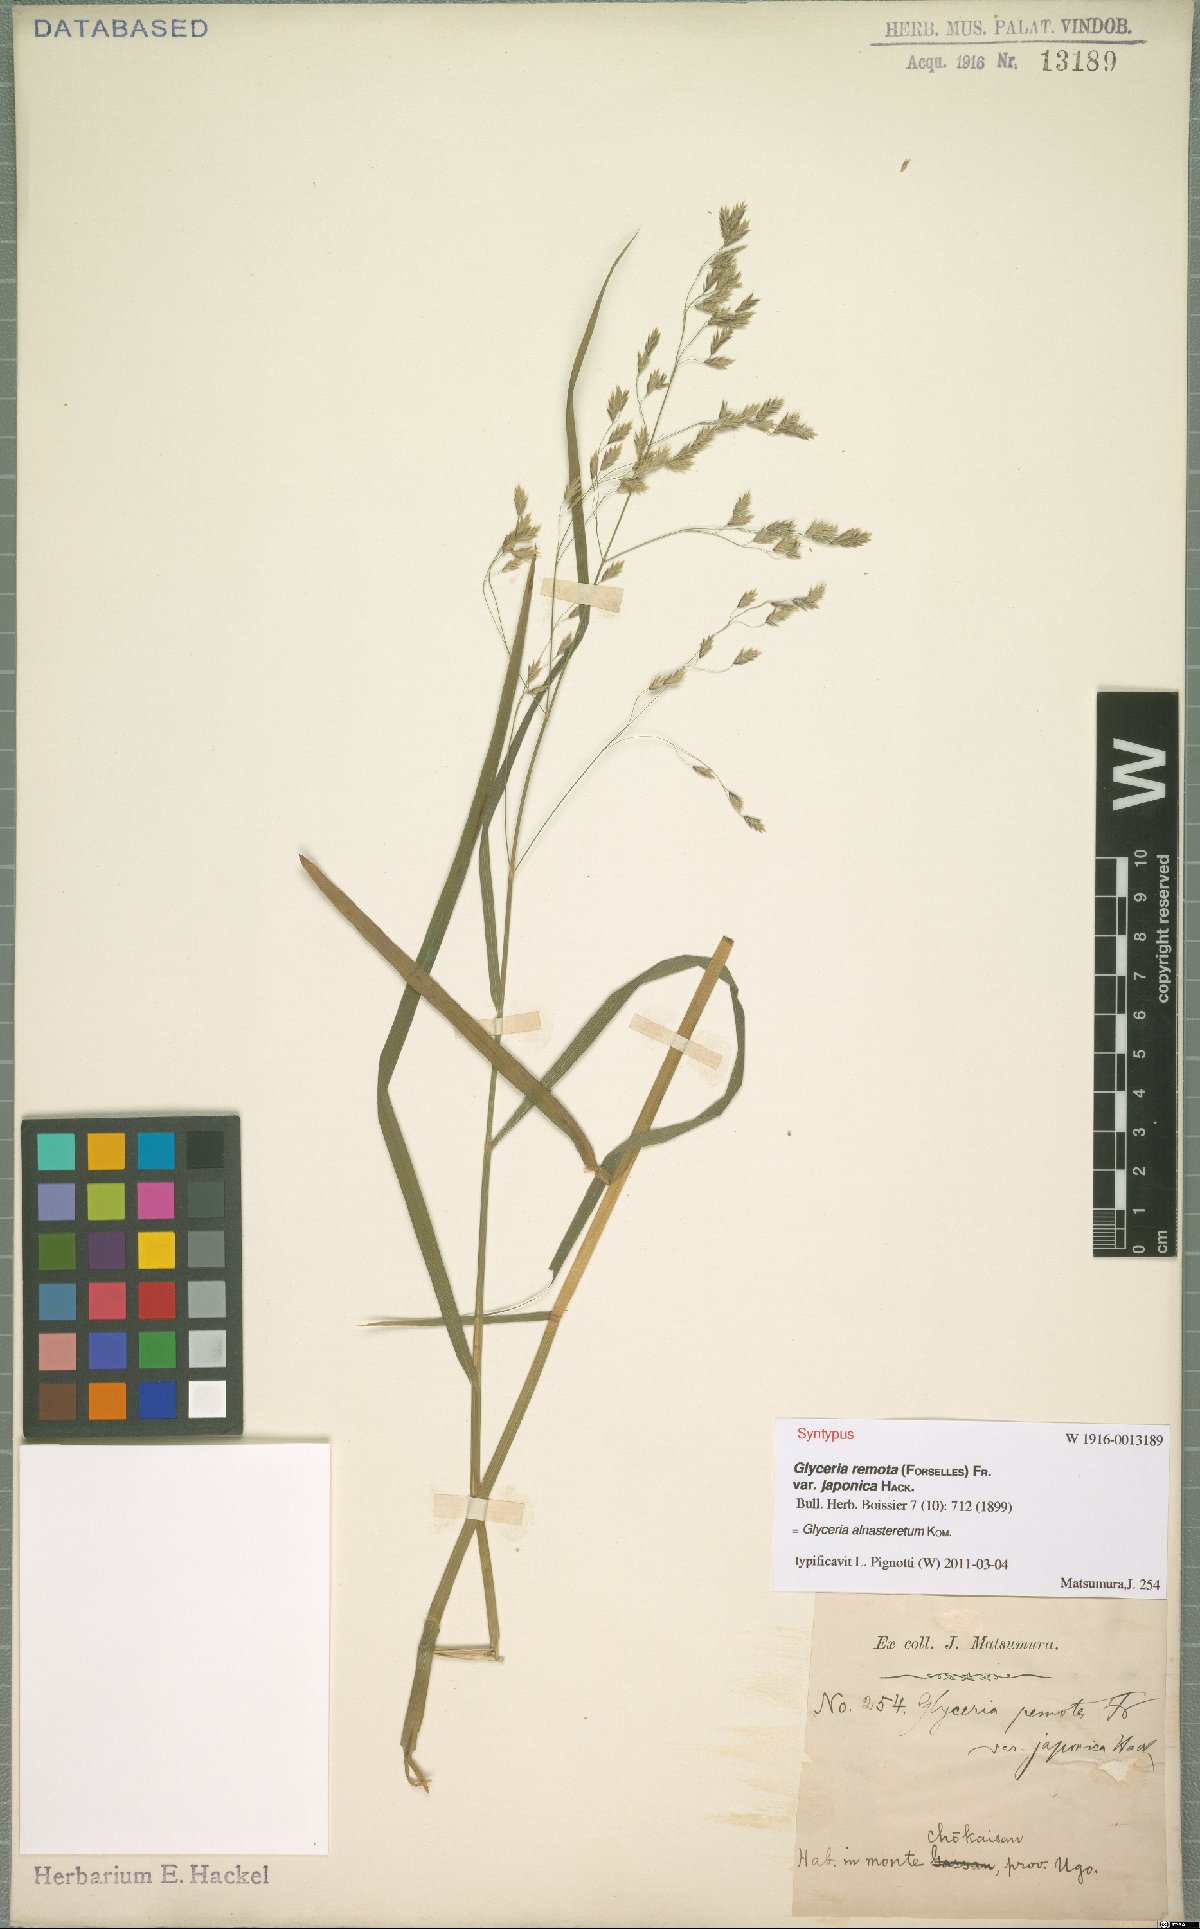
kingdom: Plantae
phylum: Tracheophyta
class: Liliopsida
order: Poales
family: Poaceae
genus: Glyceria
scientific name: Glyceria alnasteretum
